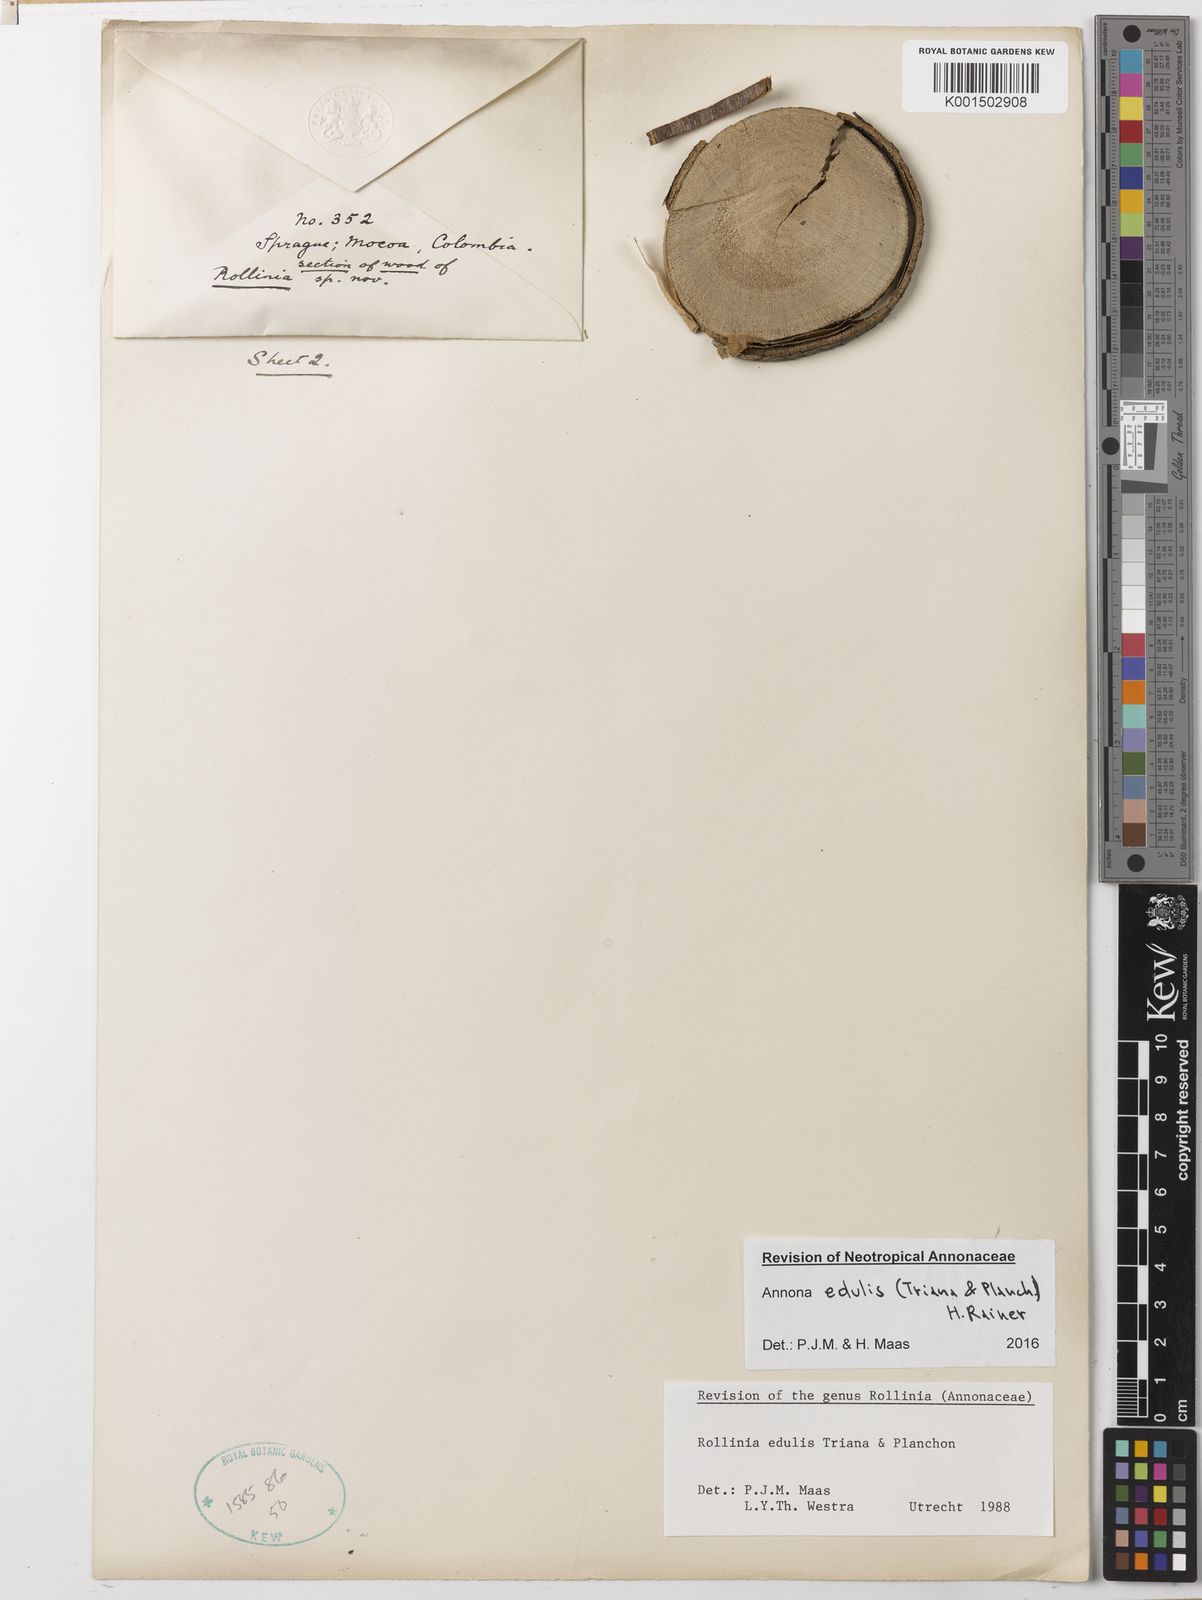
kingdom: Plantae
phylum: Tracheophyta
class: Magnoliopsida
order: Magnoliales
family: Annonaceae
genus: Annona
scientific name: Annona edulis
